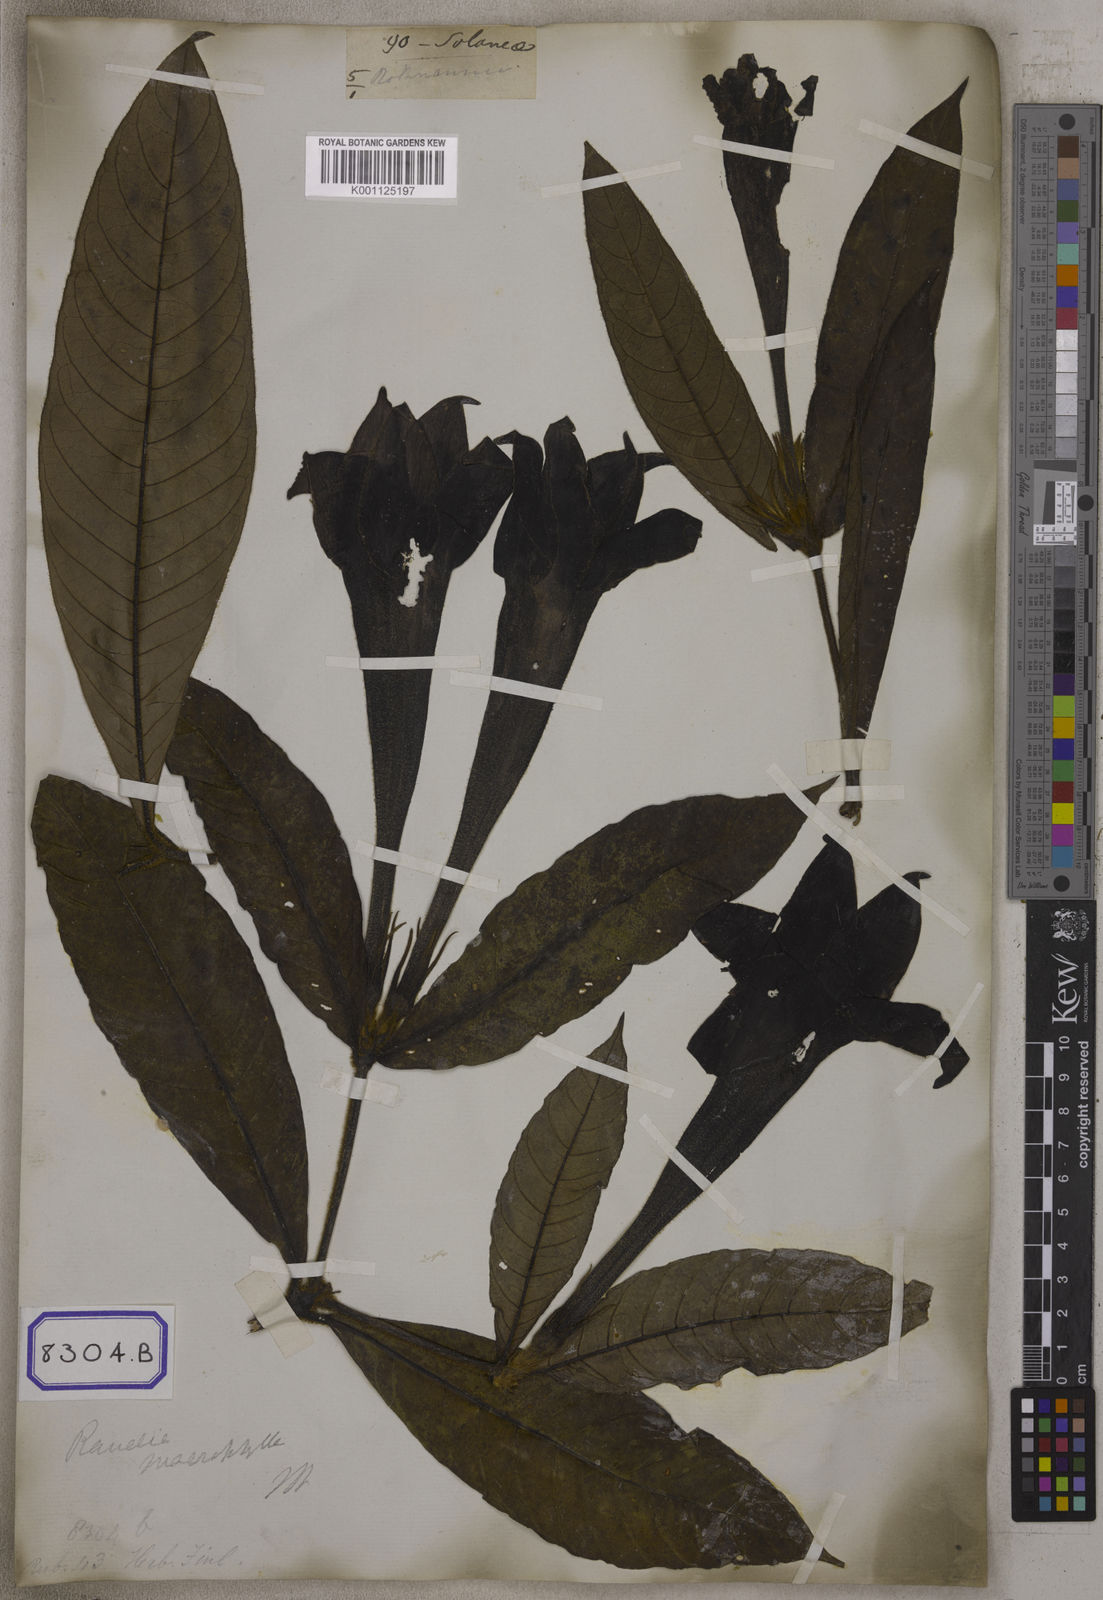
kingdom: Plantae
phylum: Tracheophyta
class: Magnoliopsida
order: Gentianales
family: Rubiaceae
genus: Singaporandia
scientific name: Singaporandia macrophylla
